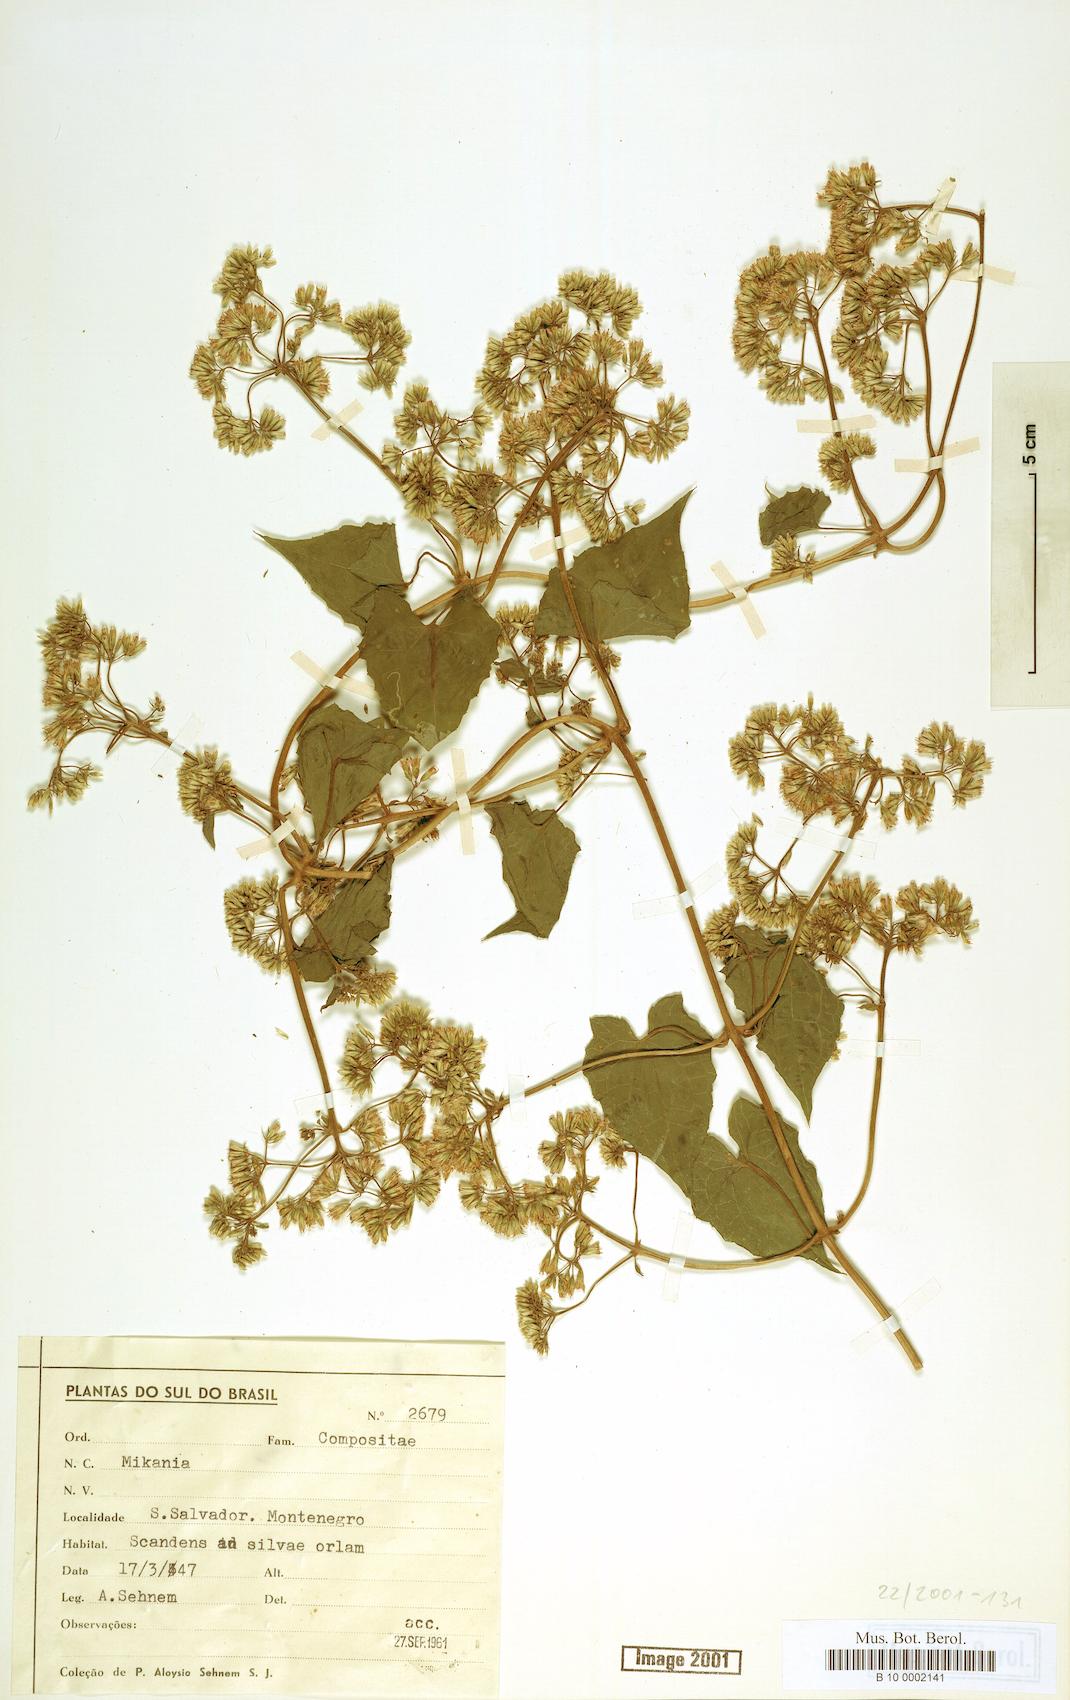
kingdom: Plantae
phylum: Tracheophyta
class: Magnoliopsida
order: Asterales
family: Asteraceae
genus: Mikania
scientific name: Mikania
